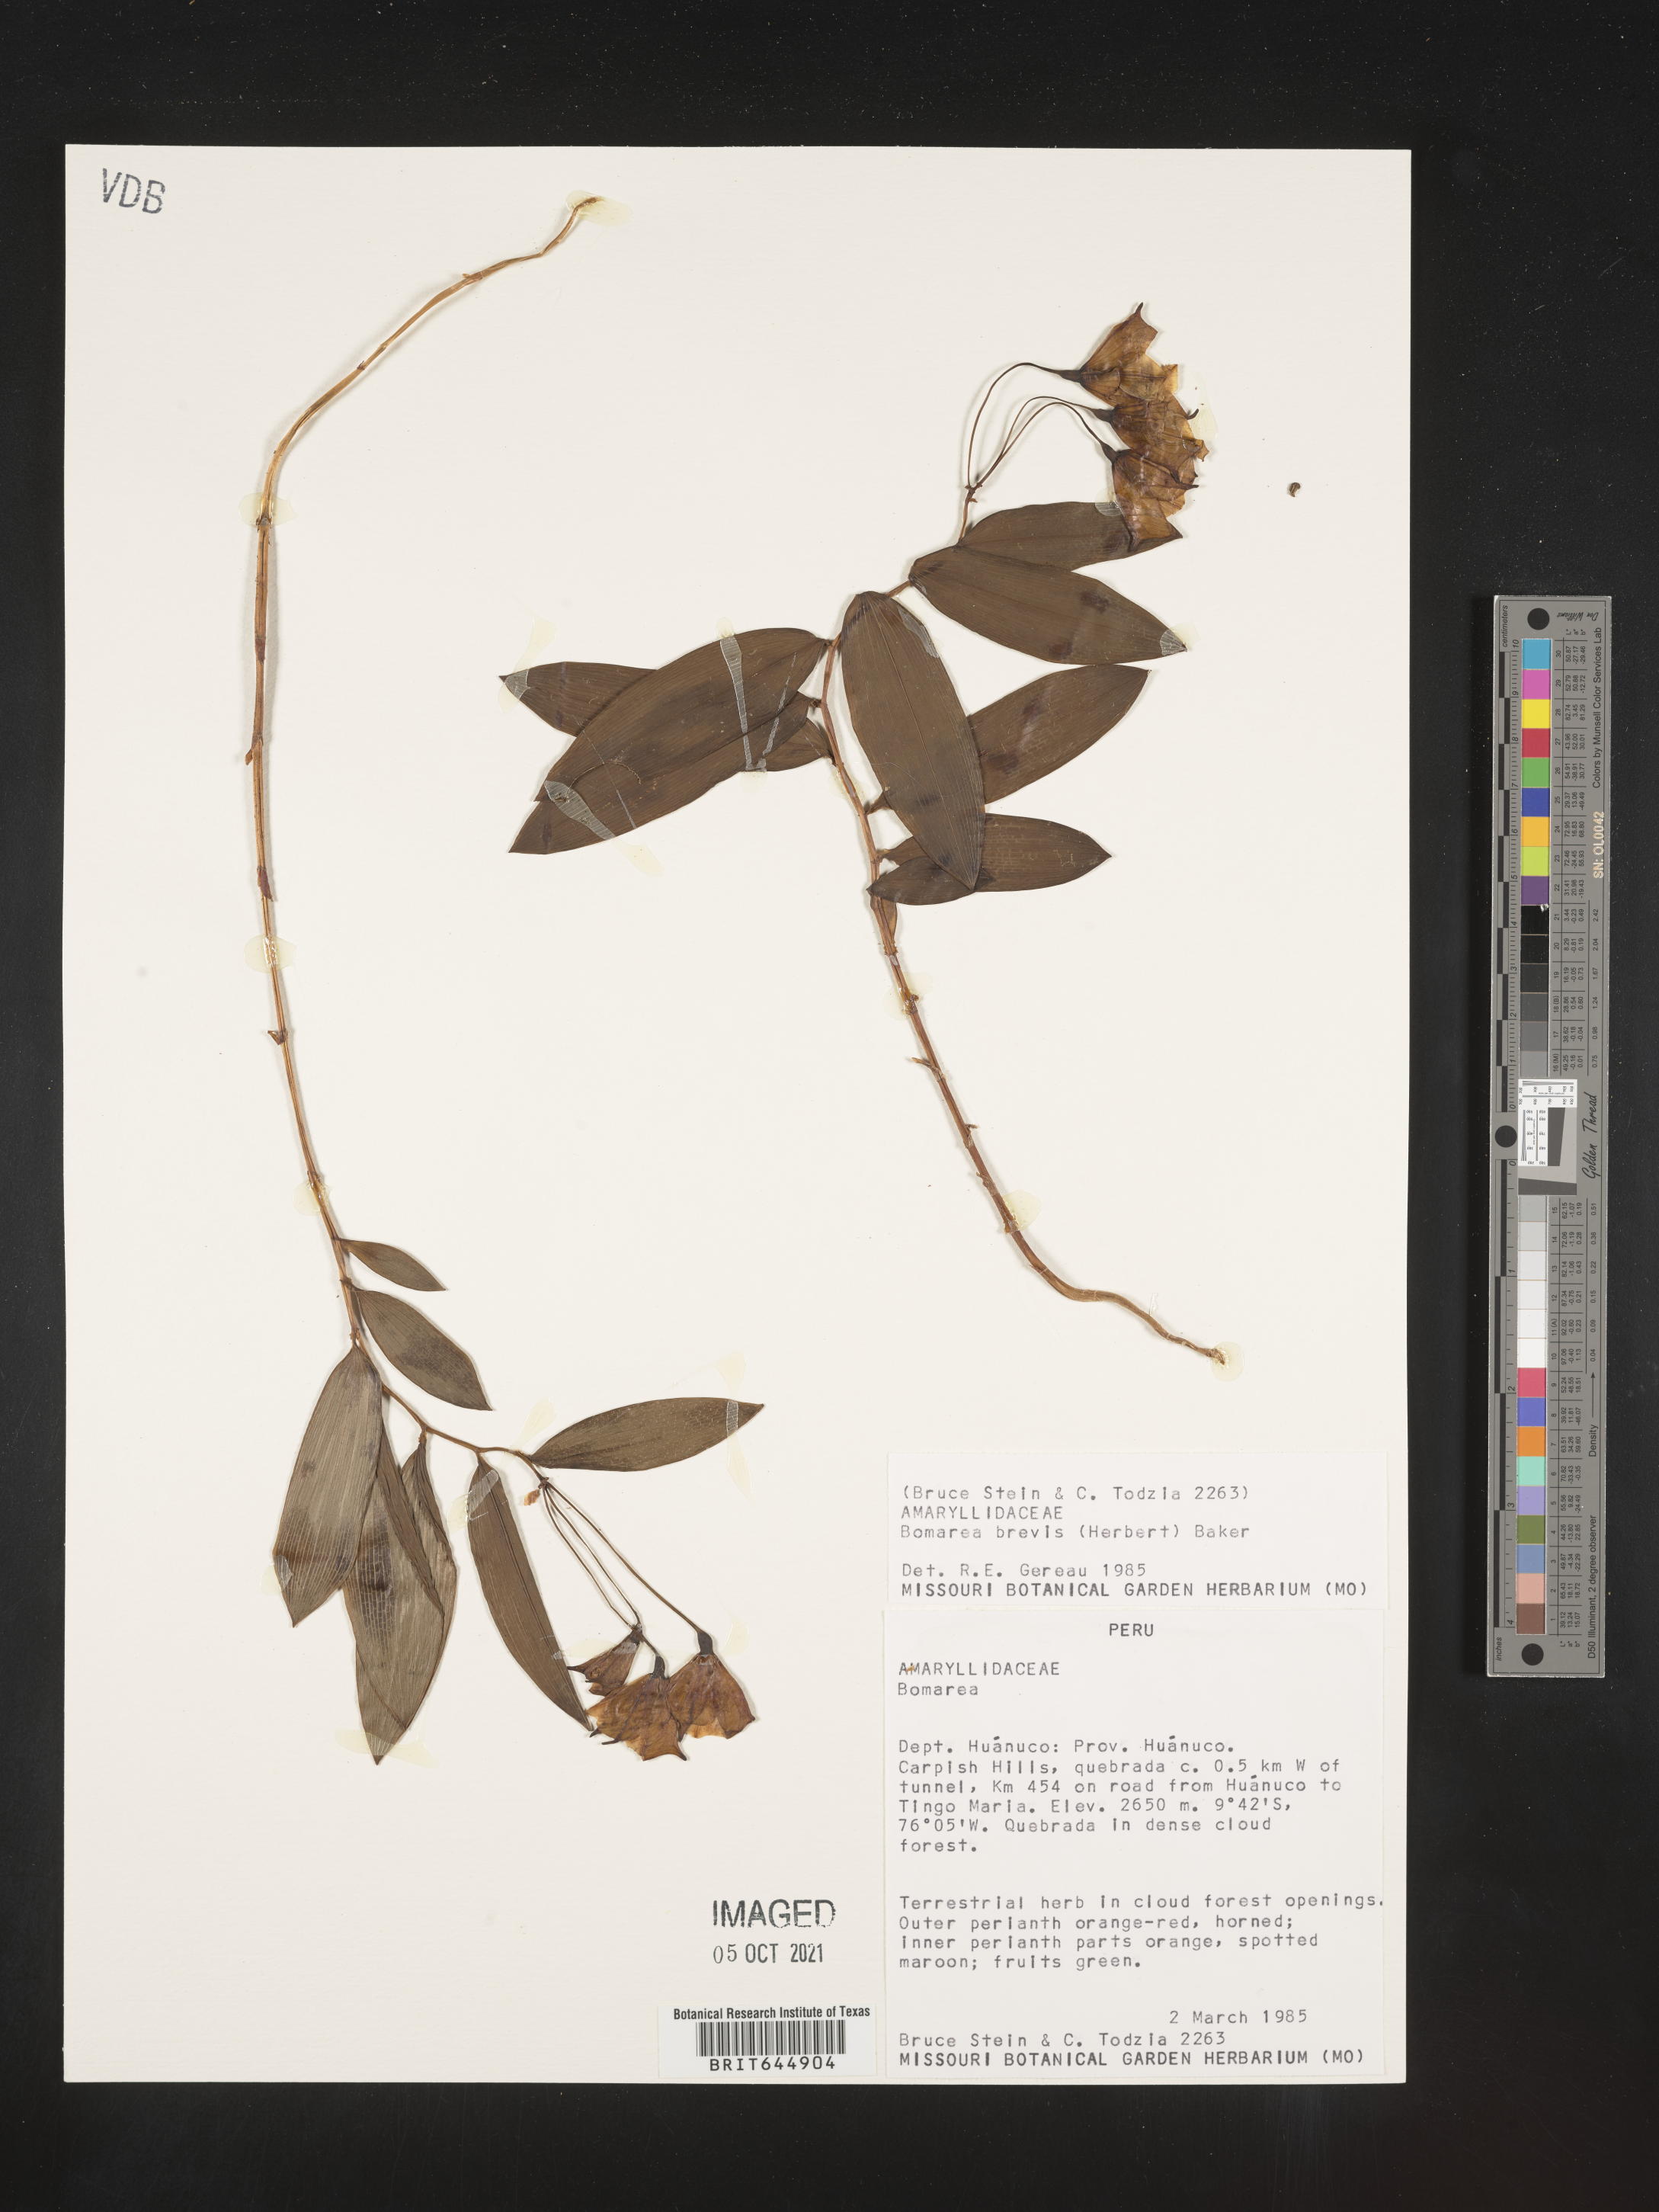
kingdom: Plantae
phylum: Tracheophyta
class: Liliopsida
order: Liliales
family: Alstroemeriaceae
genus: Bomarea
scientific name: Bomarea brevis
